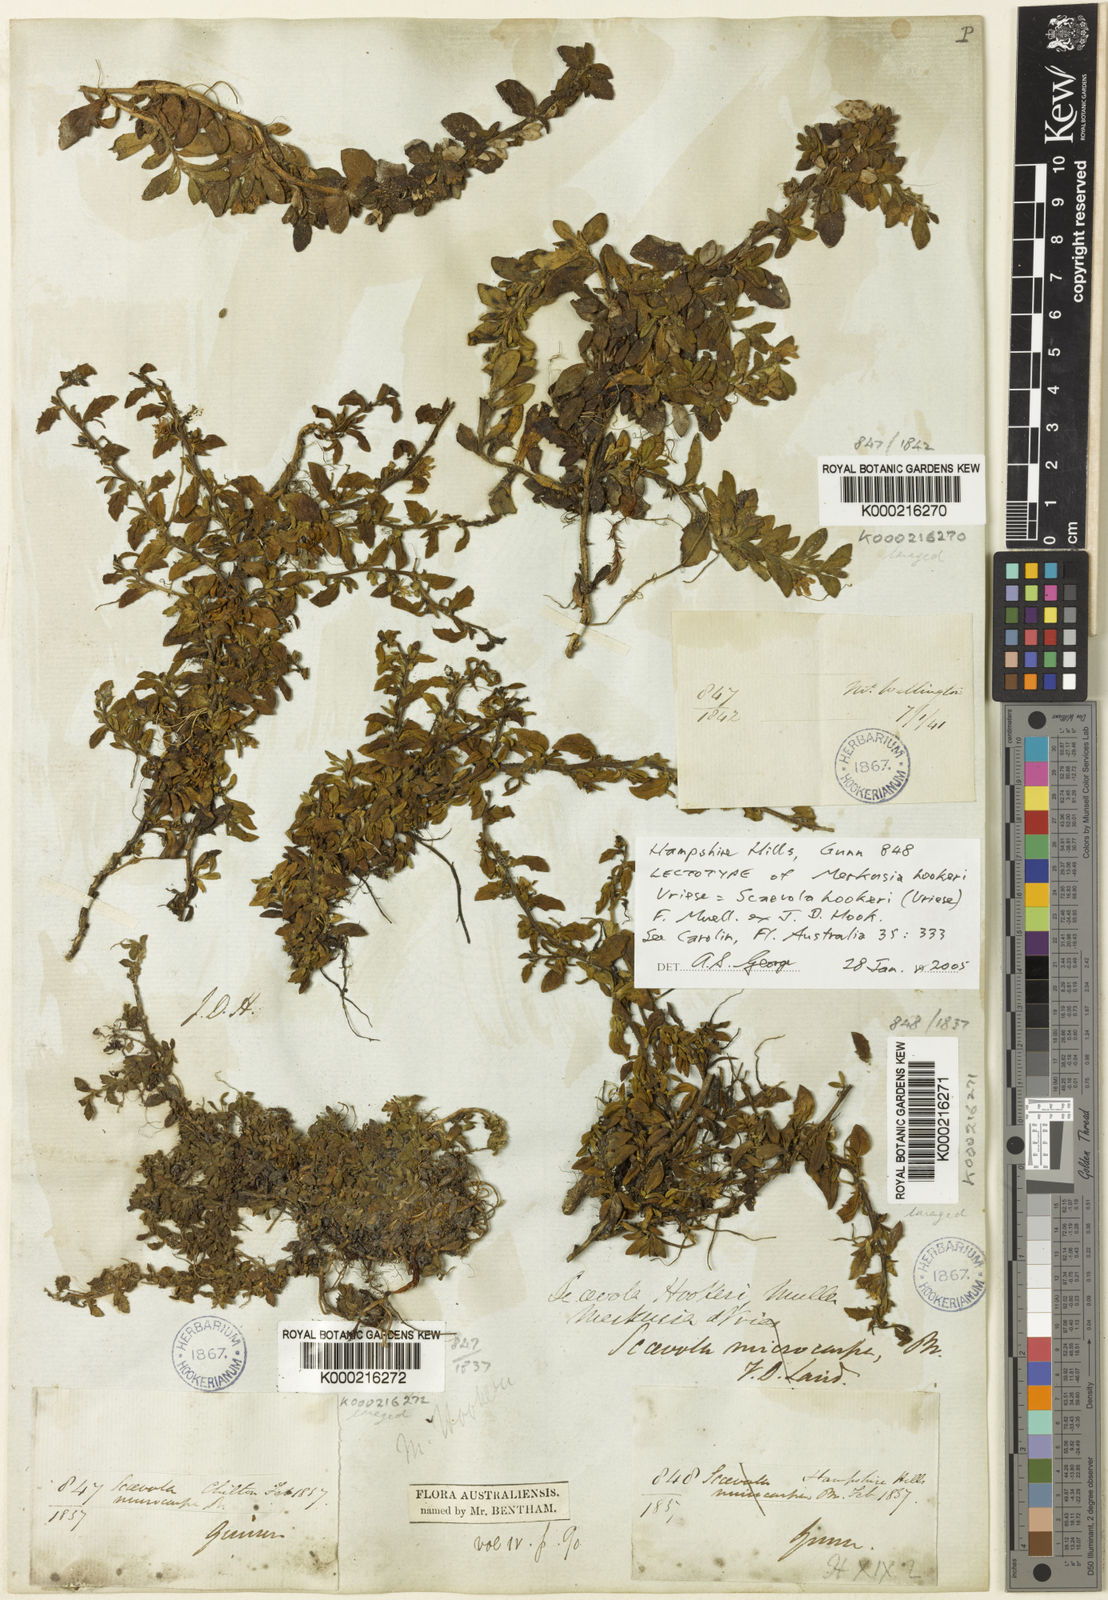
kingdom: Plantae
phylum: Tracheophyta
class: Magnoliopsida
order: Asterales
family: Goodeniaceae
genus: Scaevola
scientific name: Scaevola hookeri
